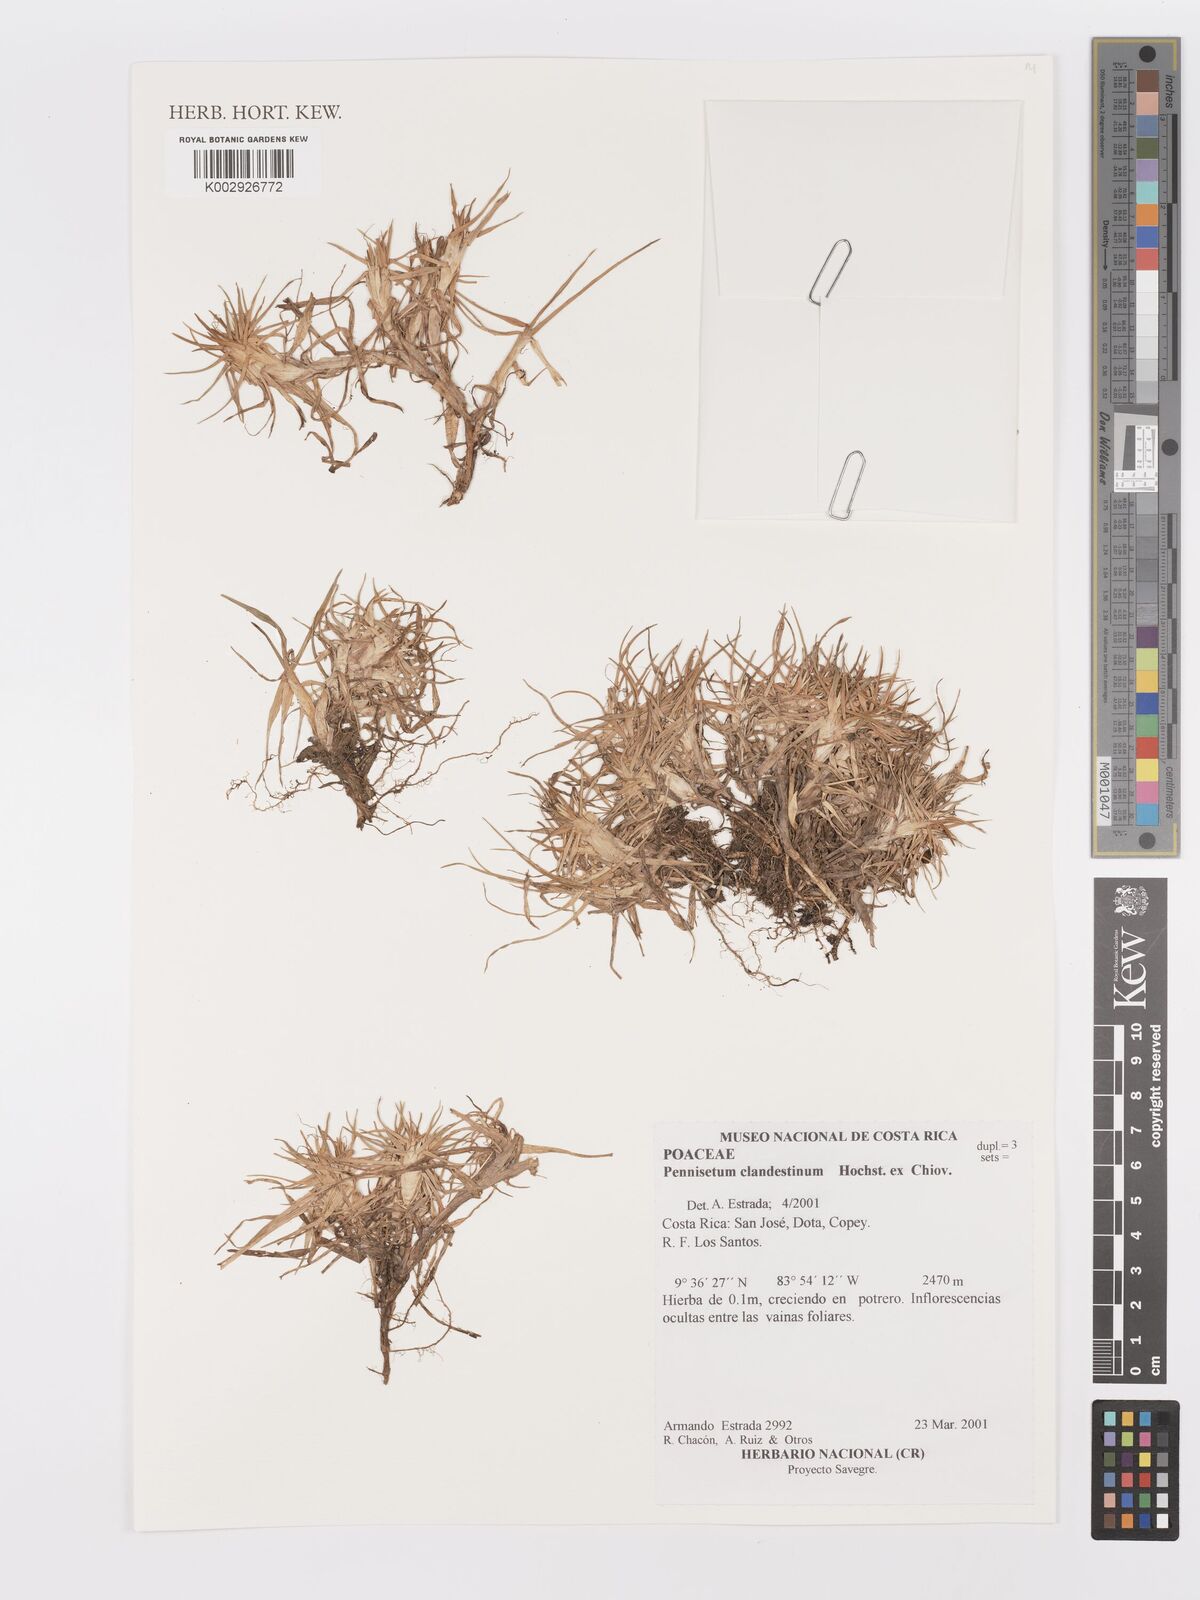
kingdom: Plantae
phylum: Tracheophyta
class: Liliopsida
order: Poales
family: Poaceae
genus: Cenchrus
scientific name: Cenchrus clandestinus
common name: Kikuyugrass
